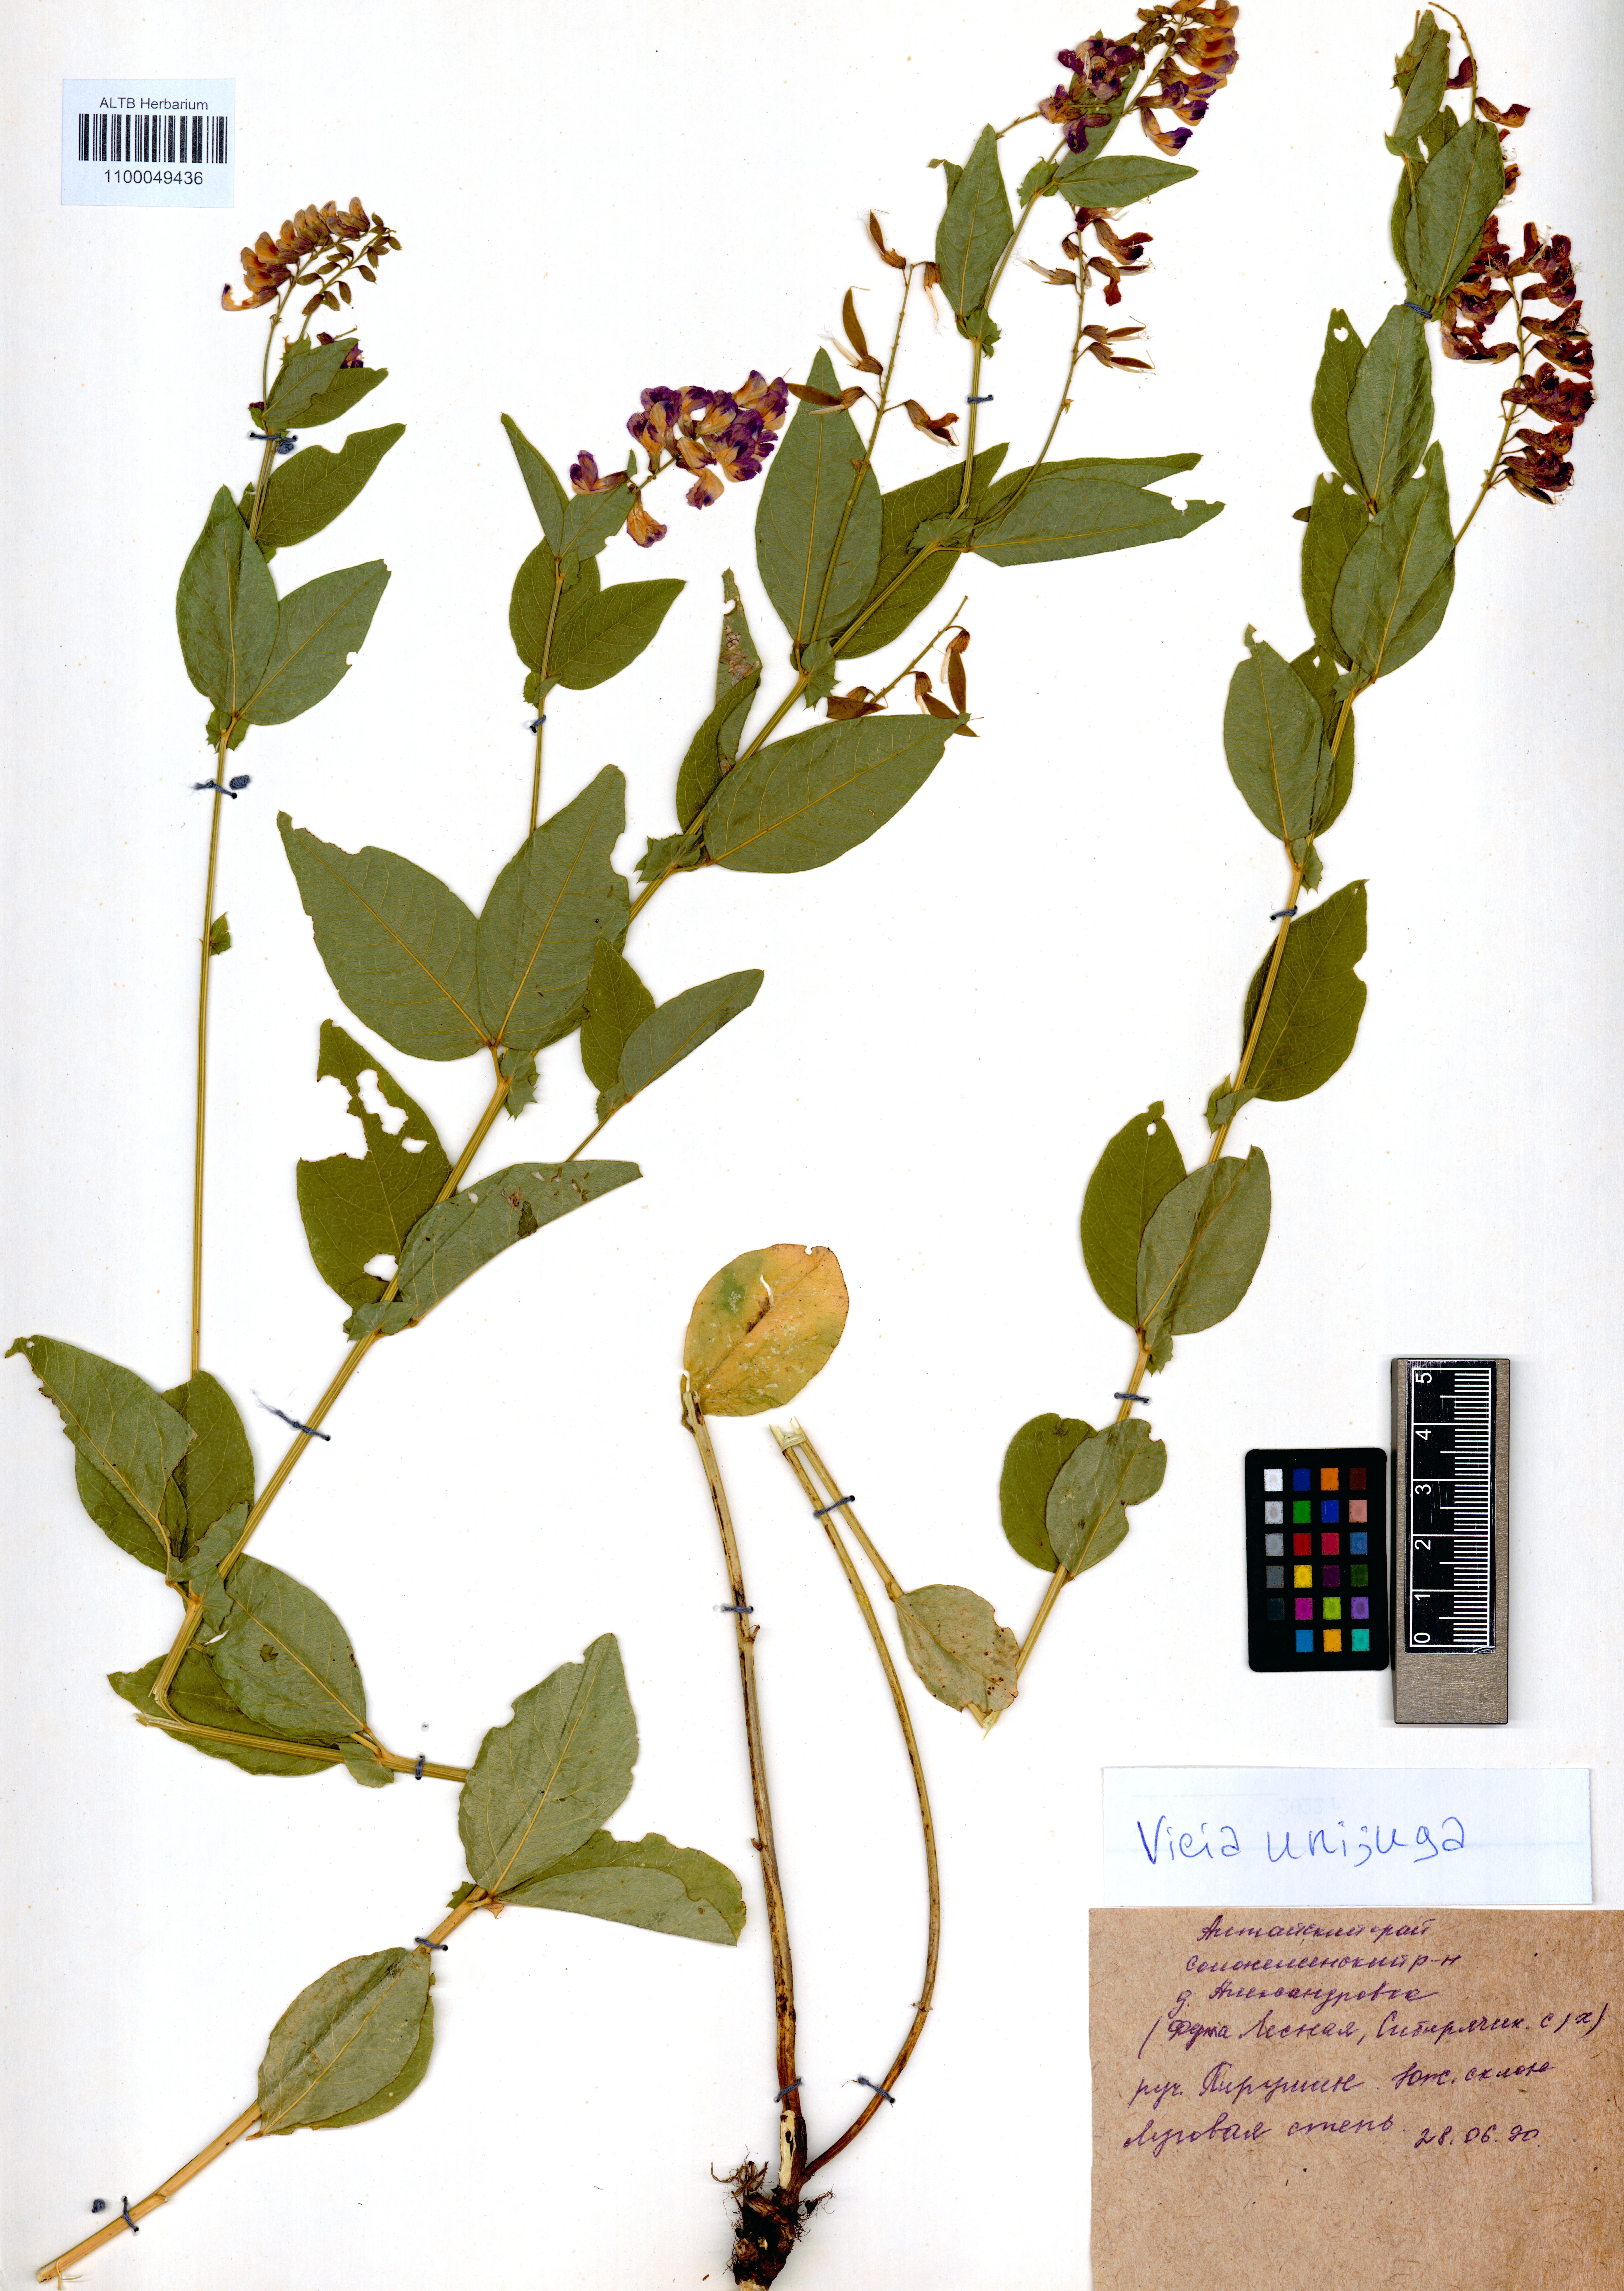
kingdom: Plantae
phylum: Tracheophyta
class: Magnoliopsida
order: Fabales
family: Fabaceae
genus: Vicia
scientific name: Vicia unijuga
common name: Two-leaf vetch
